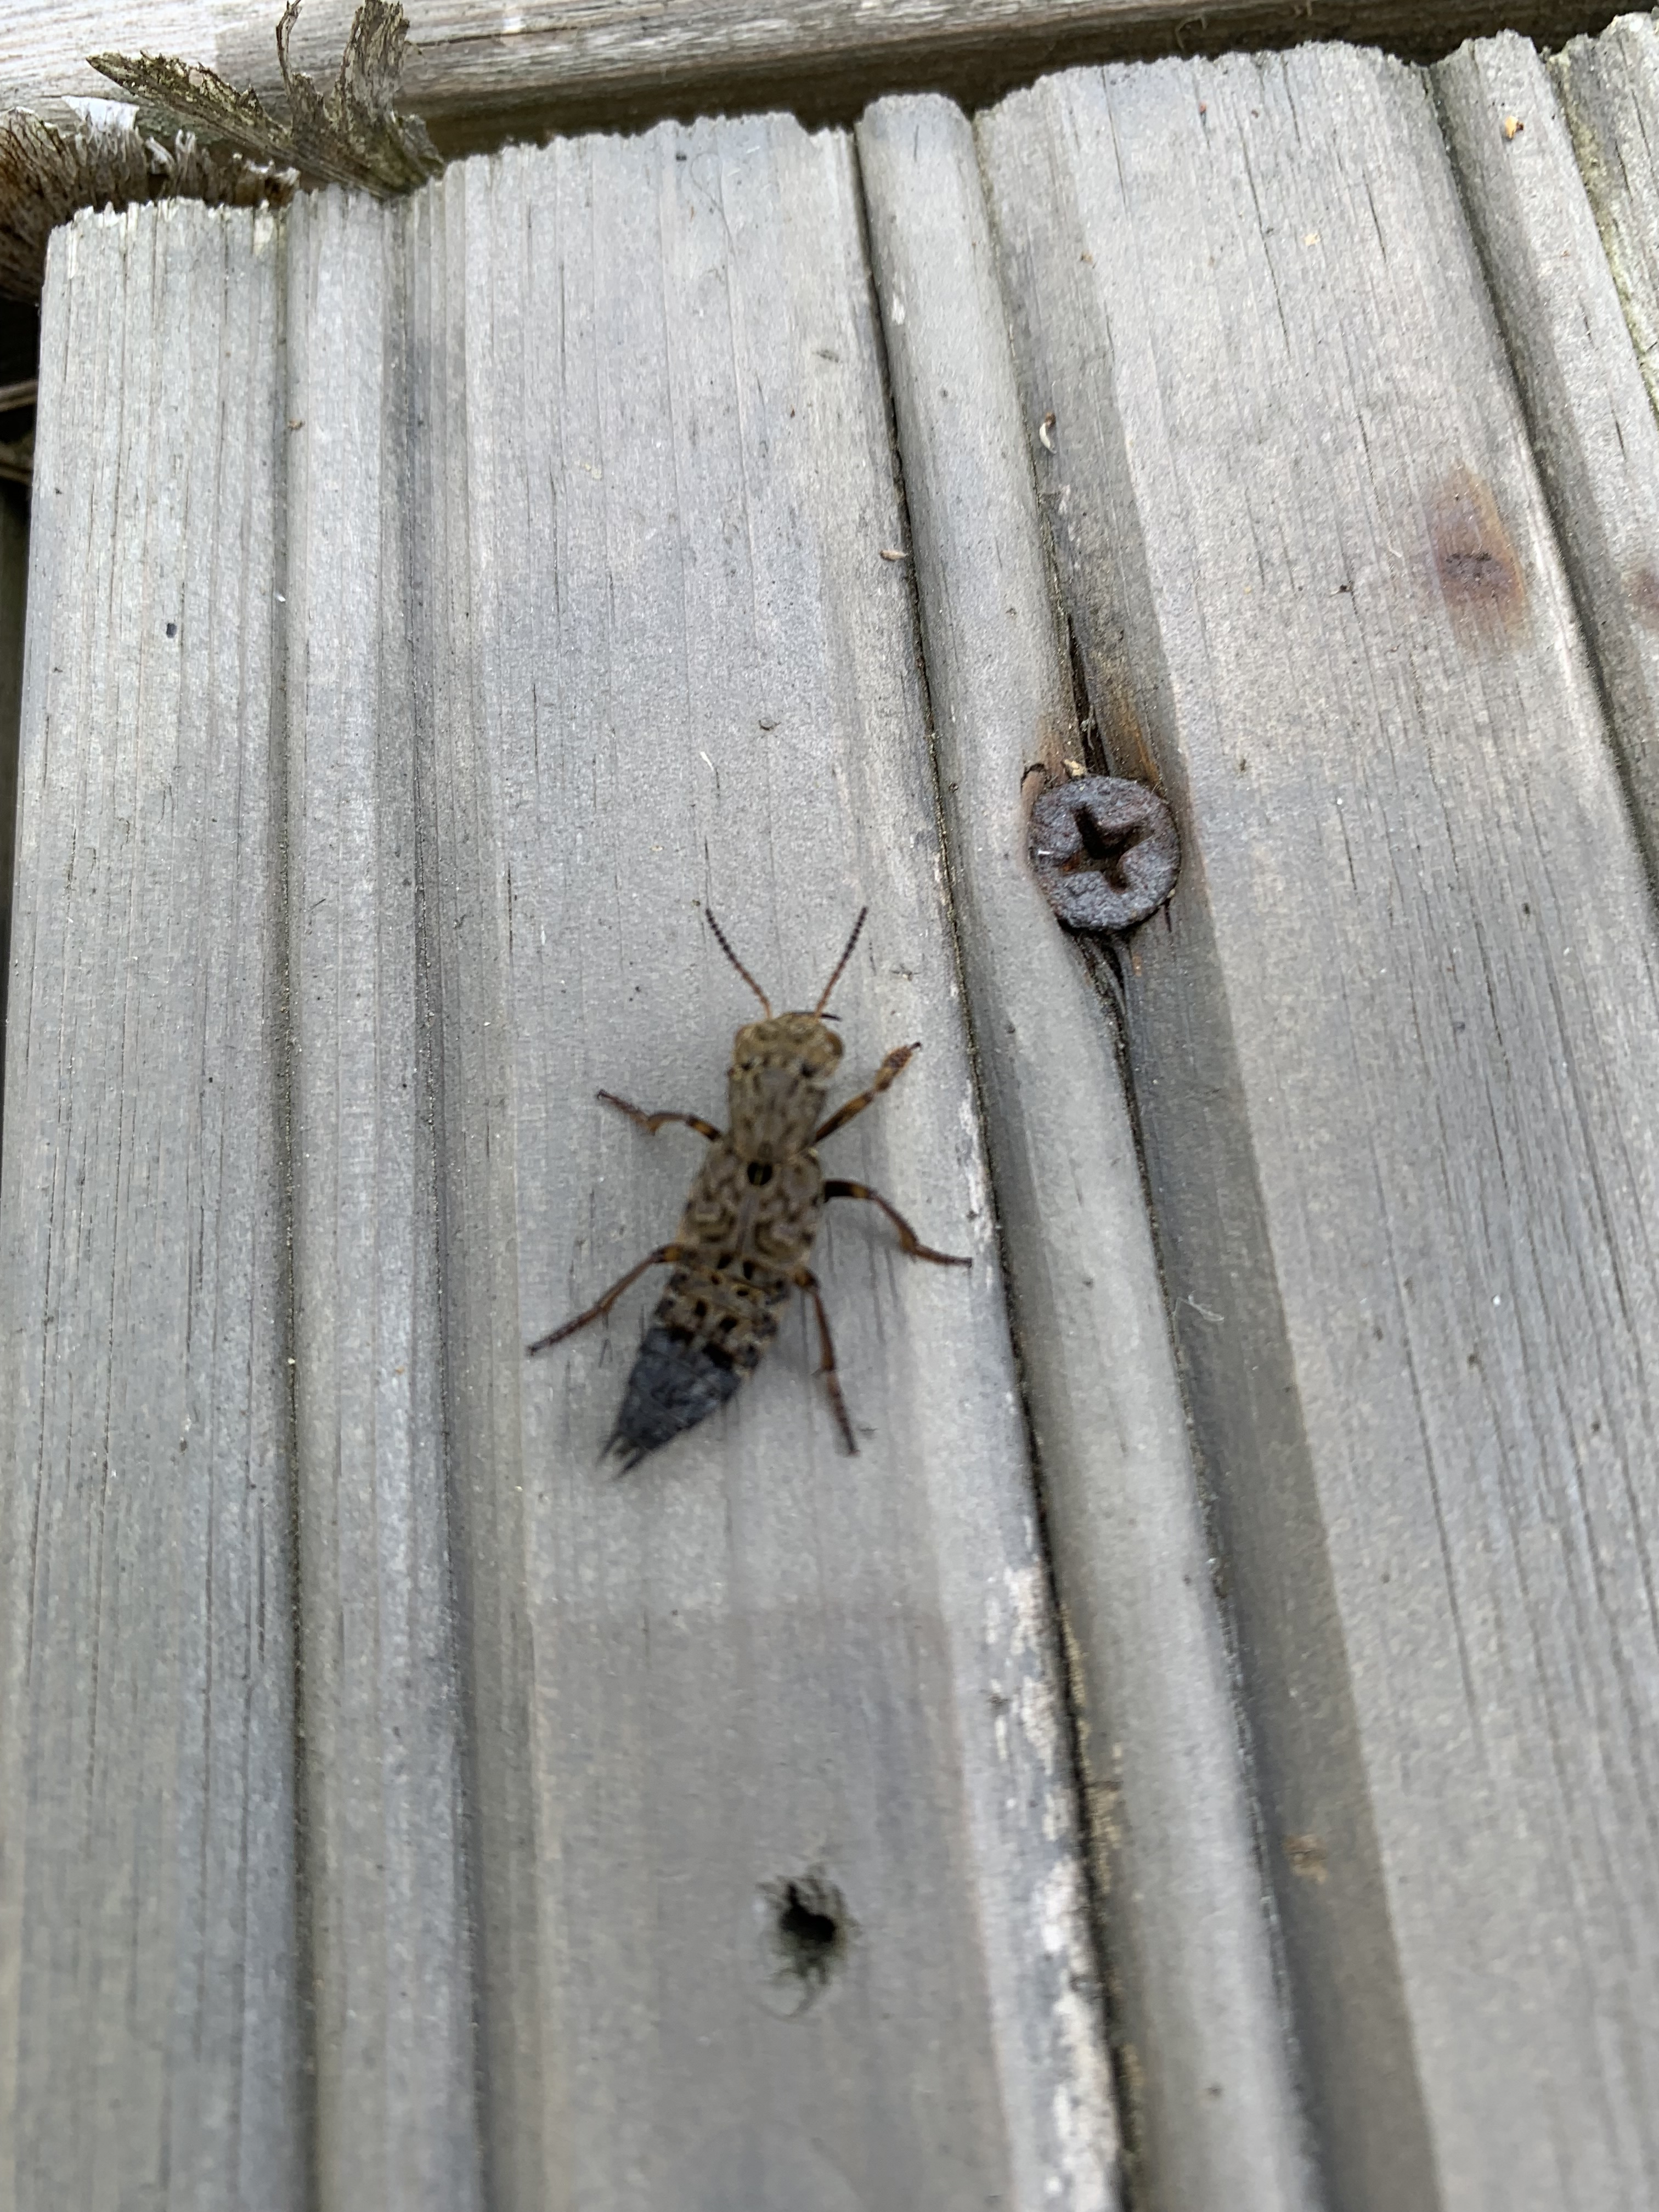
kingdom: Animalia
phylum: Arthropoda
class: Insecta
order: Coleoptera
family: Staphylinidae
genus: Ontholestes
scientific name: Ontholestes murinus
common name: Staph beetle
